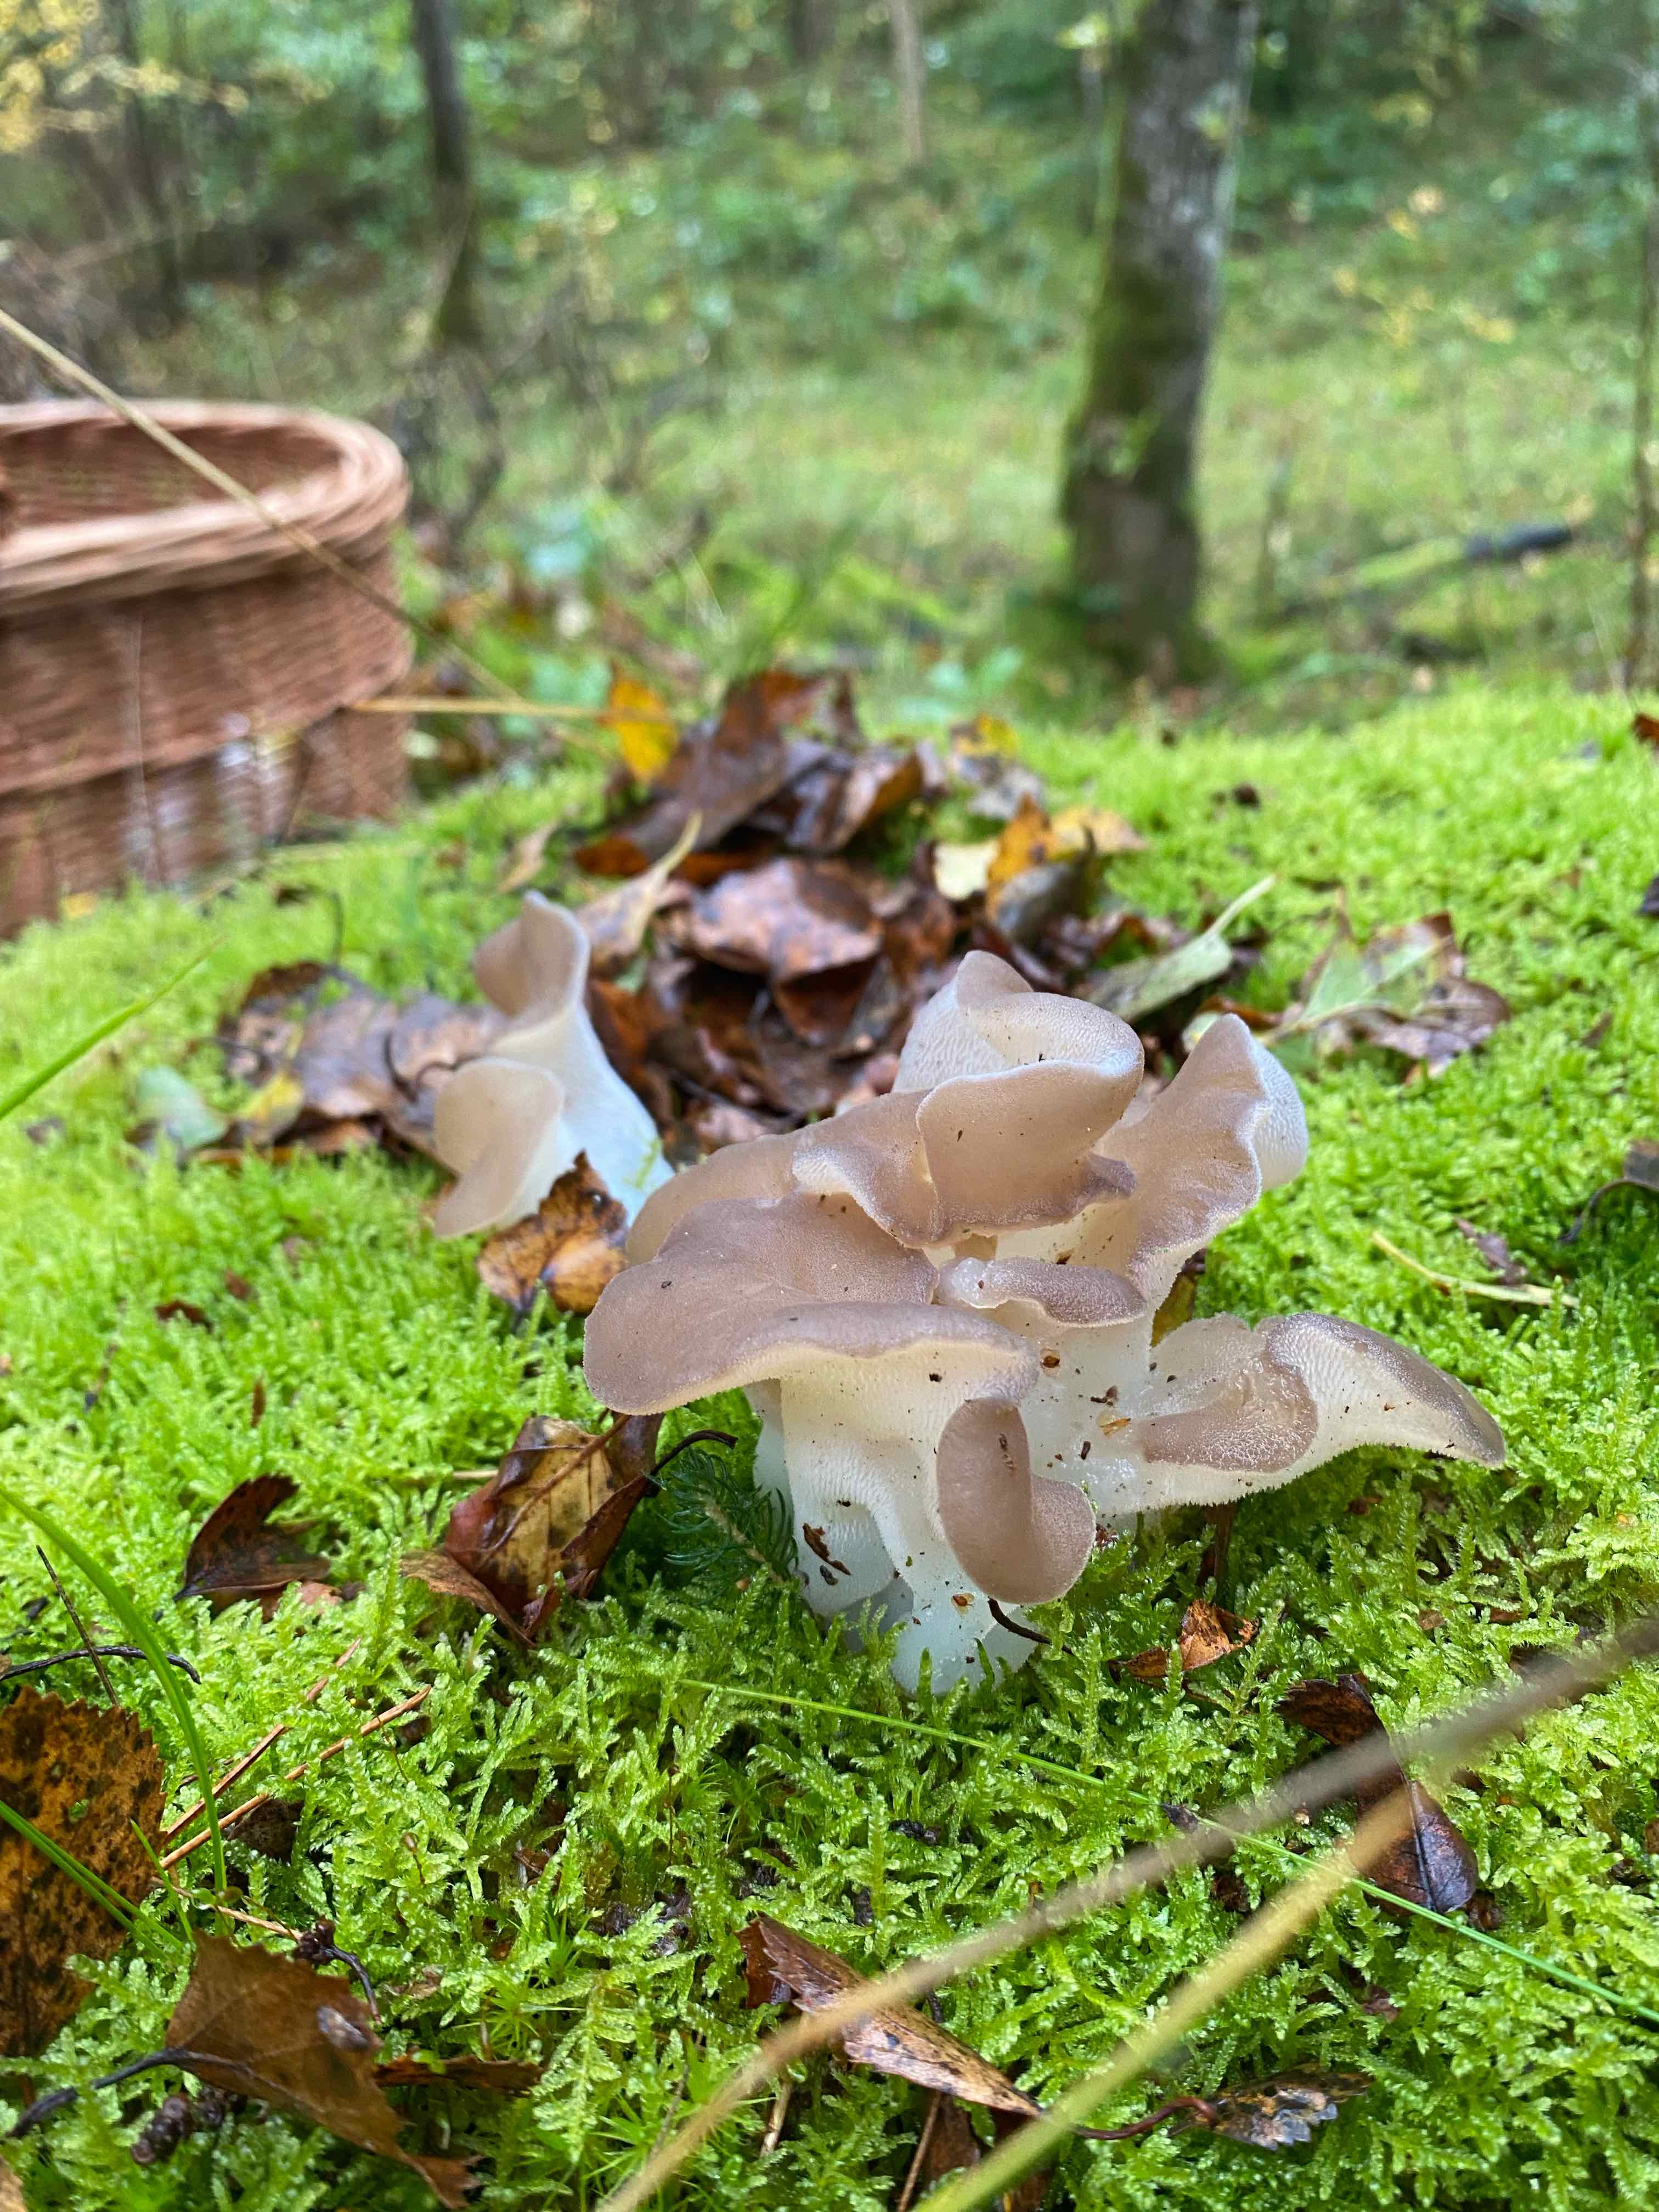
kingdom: Fungi
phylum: Basidiomycota
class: Agaricomycetes
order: Auriculariales
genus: Pseudohydnum
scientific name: Pseudohydnum gelatinosum
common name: bævretand
